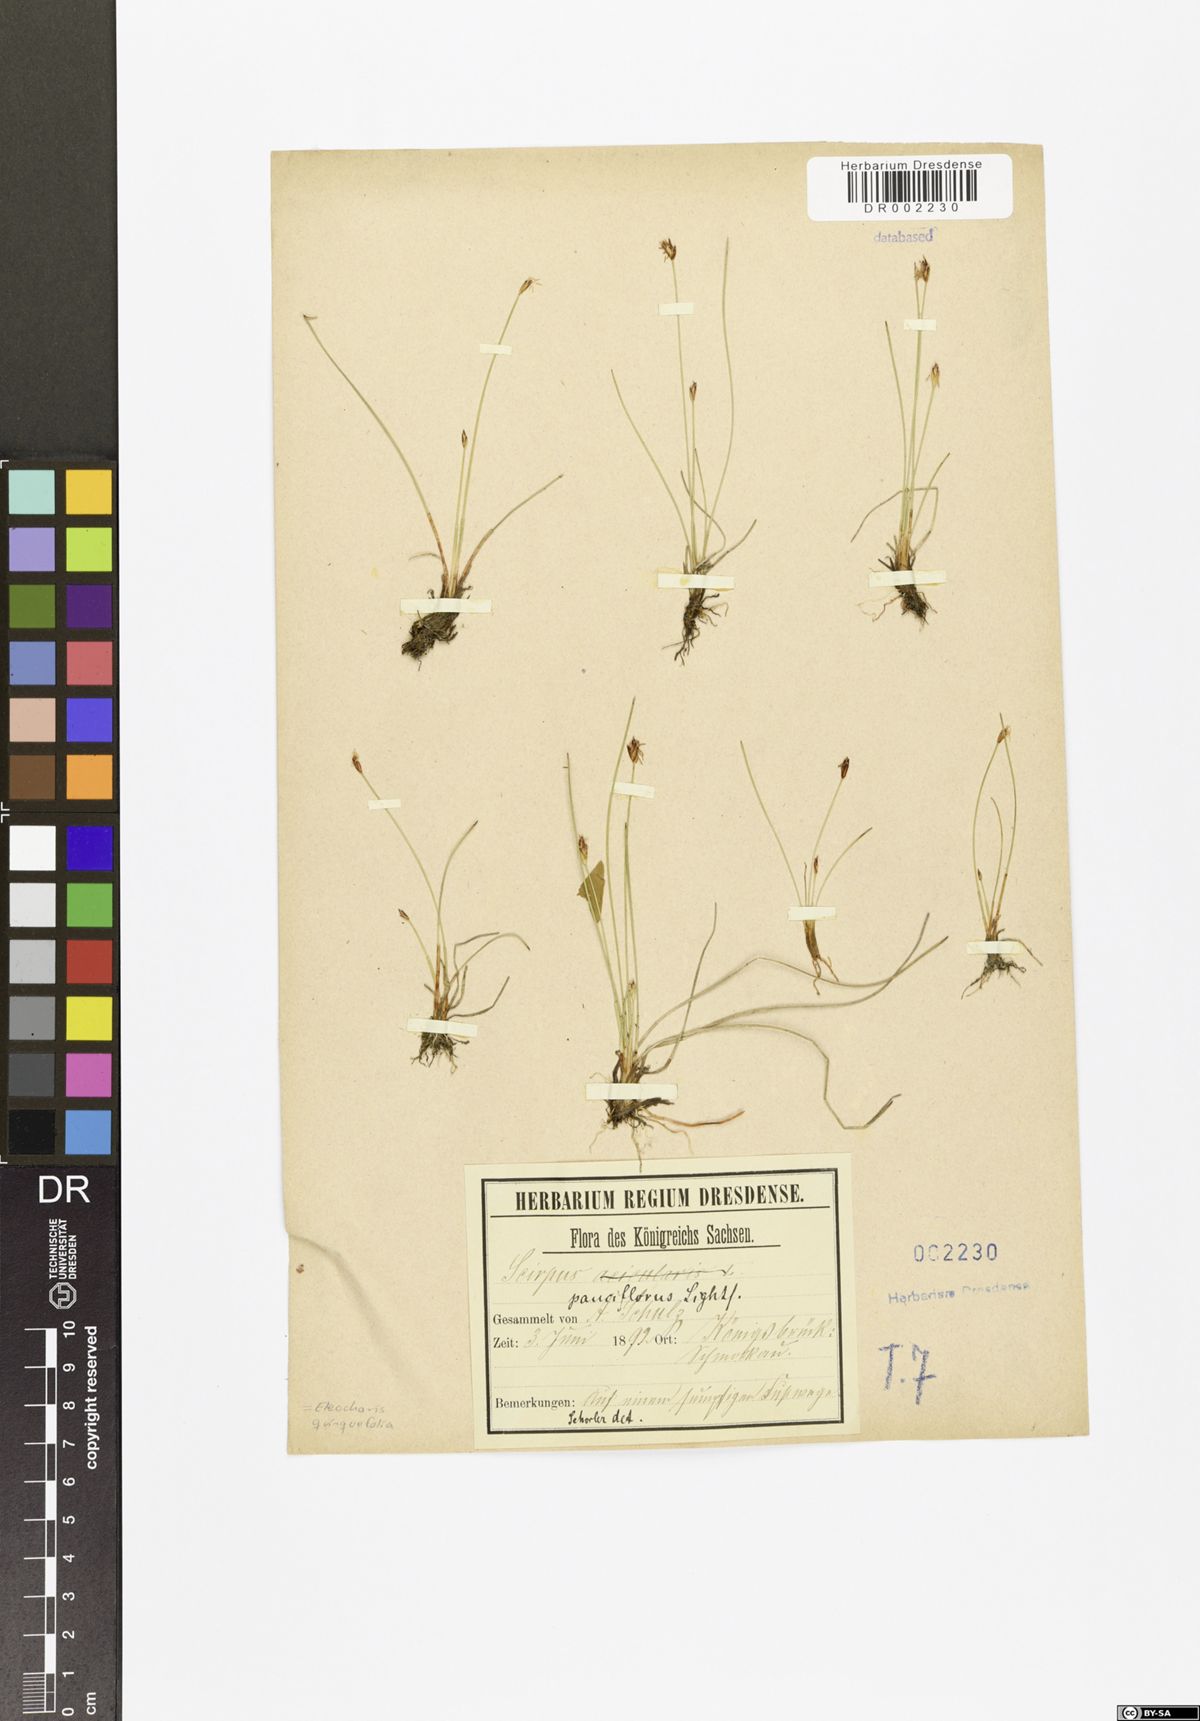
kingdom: Plantae
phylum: Tracheophyta
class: Liliopsida
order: Poales
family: Cyperaceae
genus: Eleocharis
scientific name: Eleocharis quinqueflora
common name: Few-flowered spike-rush
